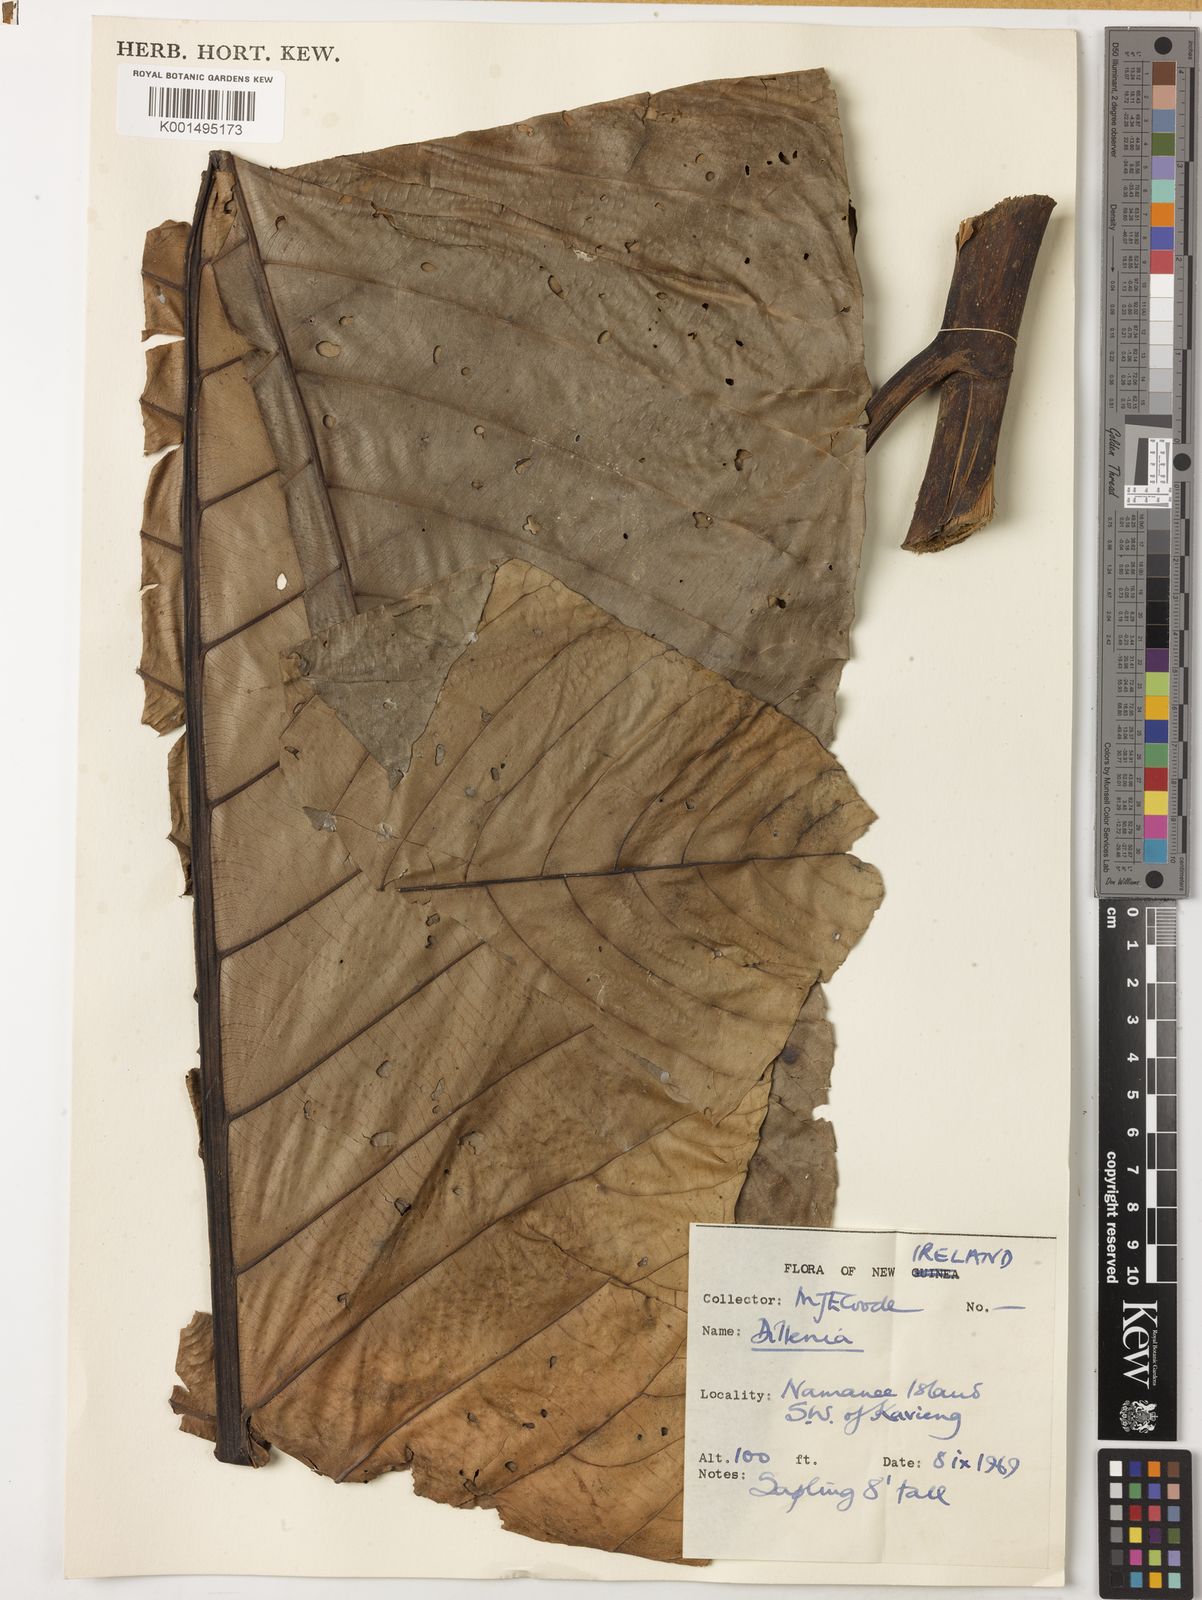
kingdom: Plantae
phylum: Tracheophyta
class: Magnoliopsida
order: Dilleniales
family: Dilleniaceae
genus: Dillenia
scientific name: Dillenia
